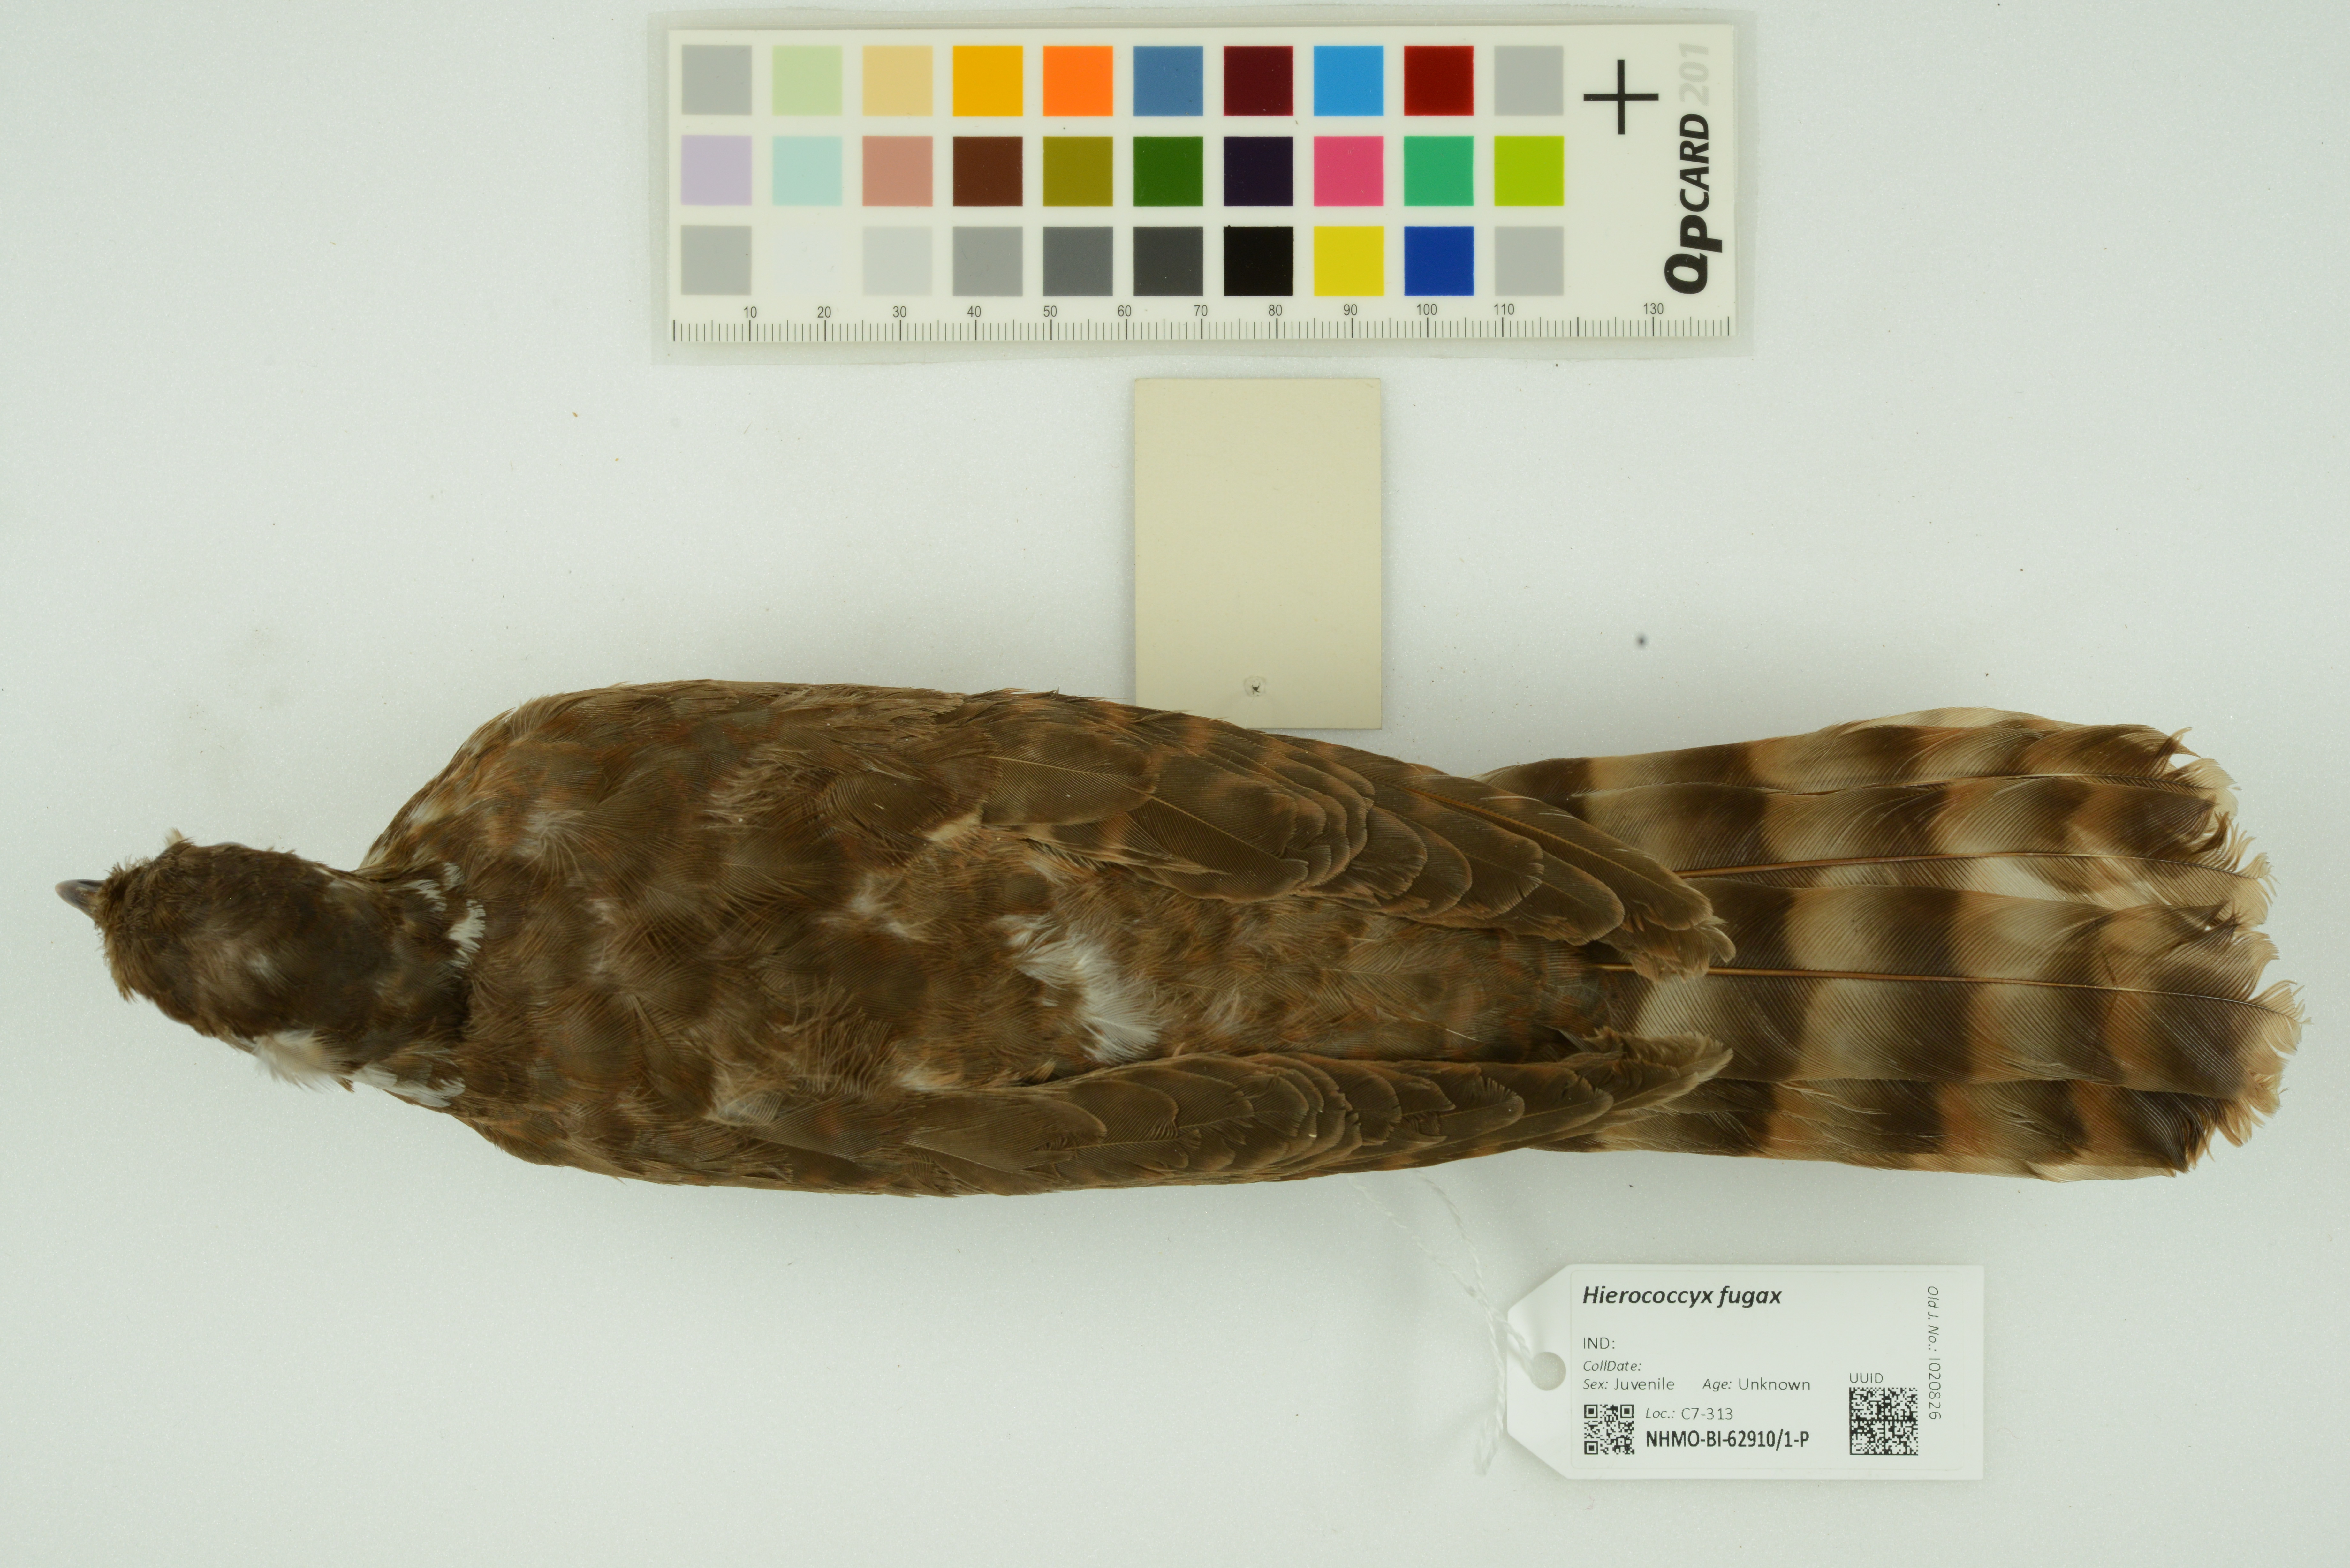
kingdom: Animalia
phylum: Chordata
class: Aves
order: Cuculiformes
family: Cuculidae
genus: Cuculus
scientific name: Cuculus fugax
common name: Hodgson's hawk-cuckoo
